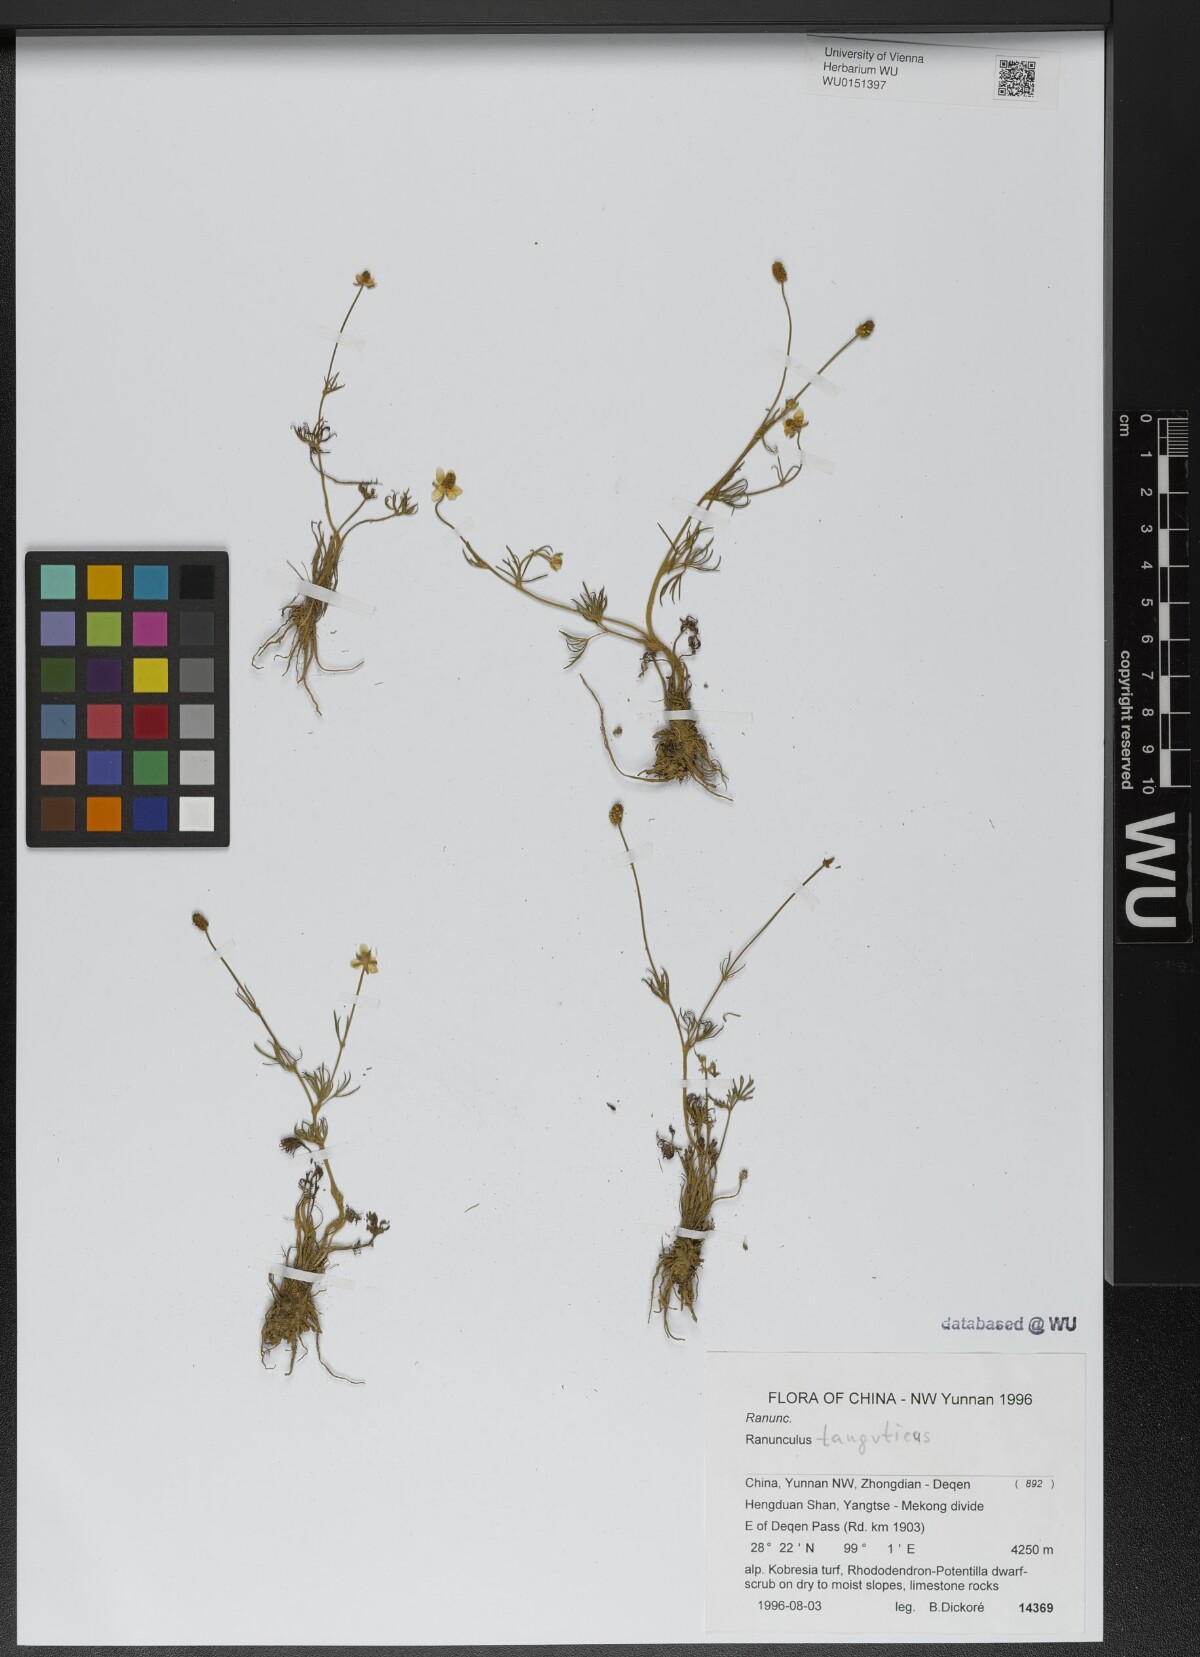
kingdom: Plantae
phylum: Tracheophyta
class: Magnoliopsida
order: Ranunculales
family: Ranunculaceae
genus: Ranunculus
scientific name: Ranunculus brotherusii
